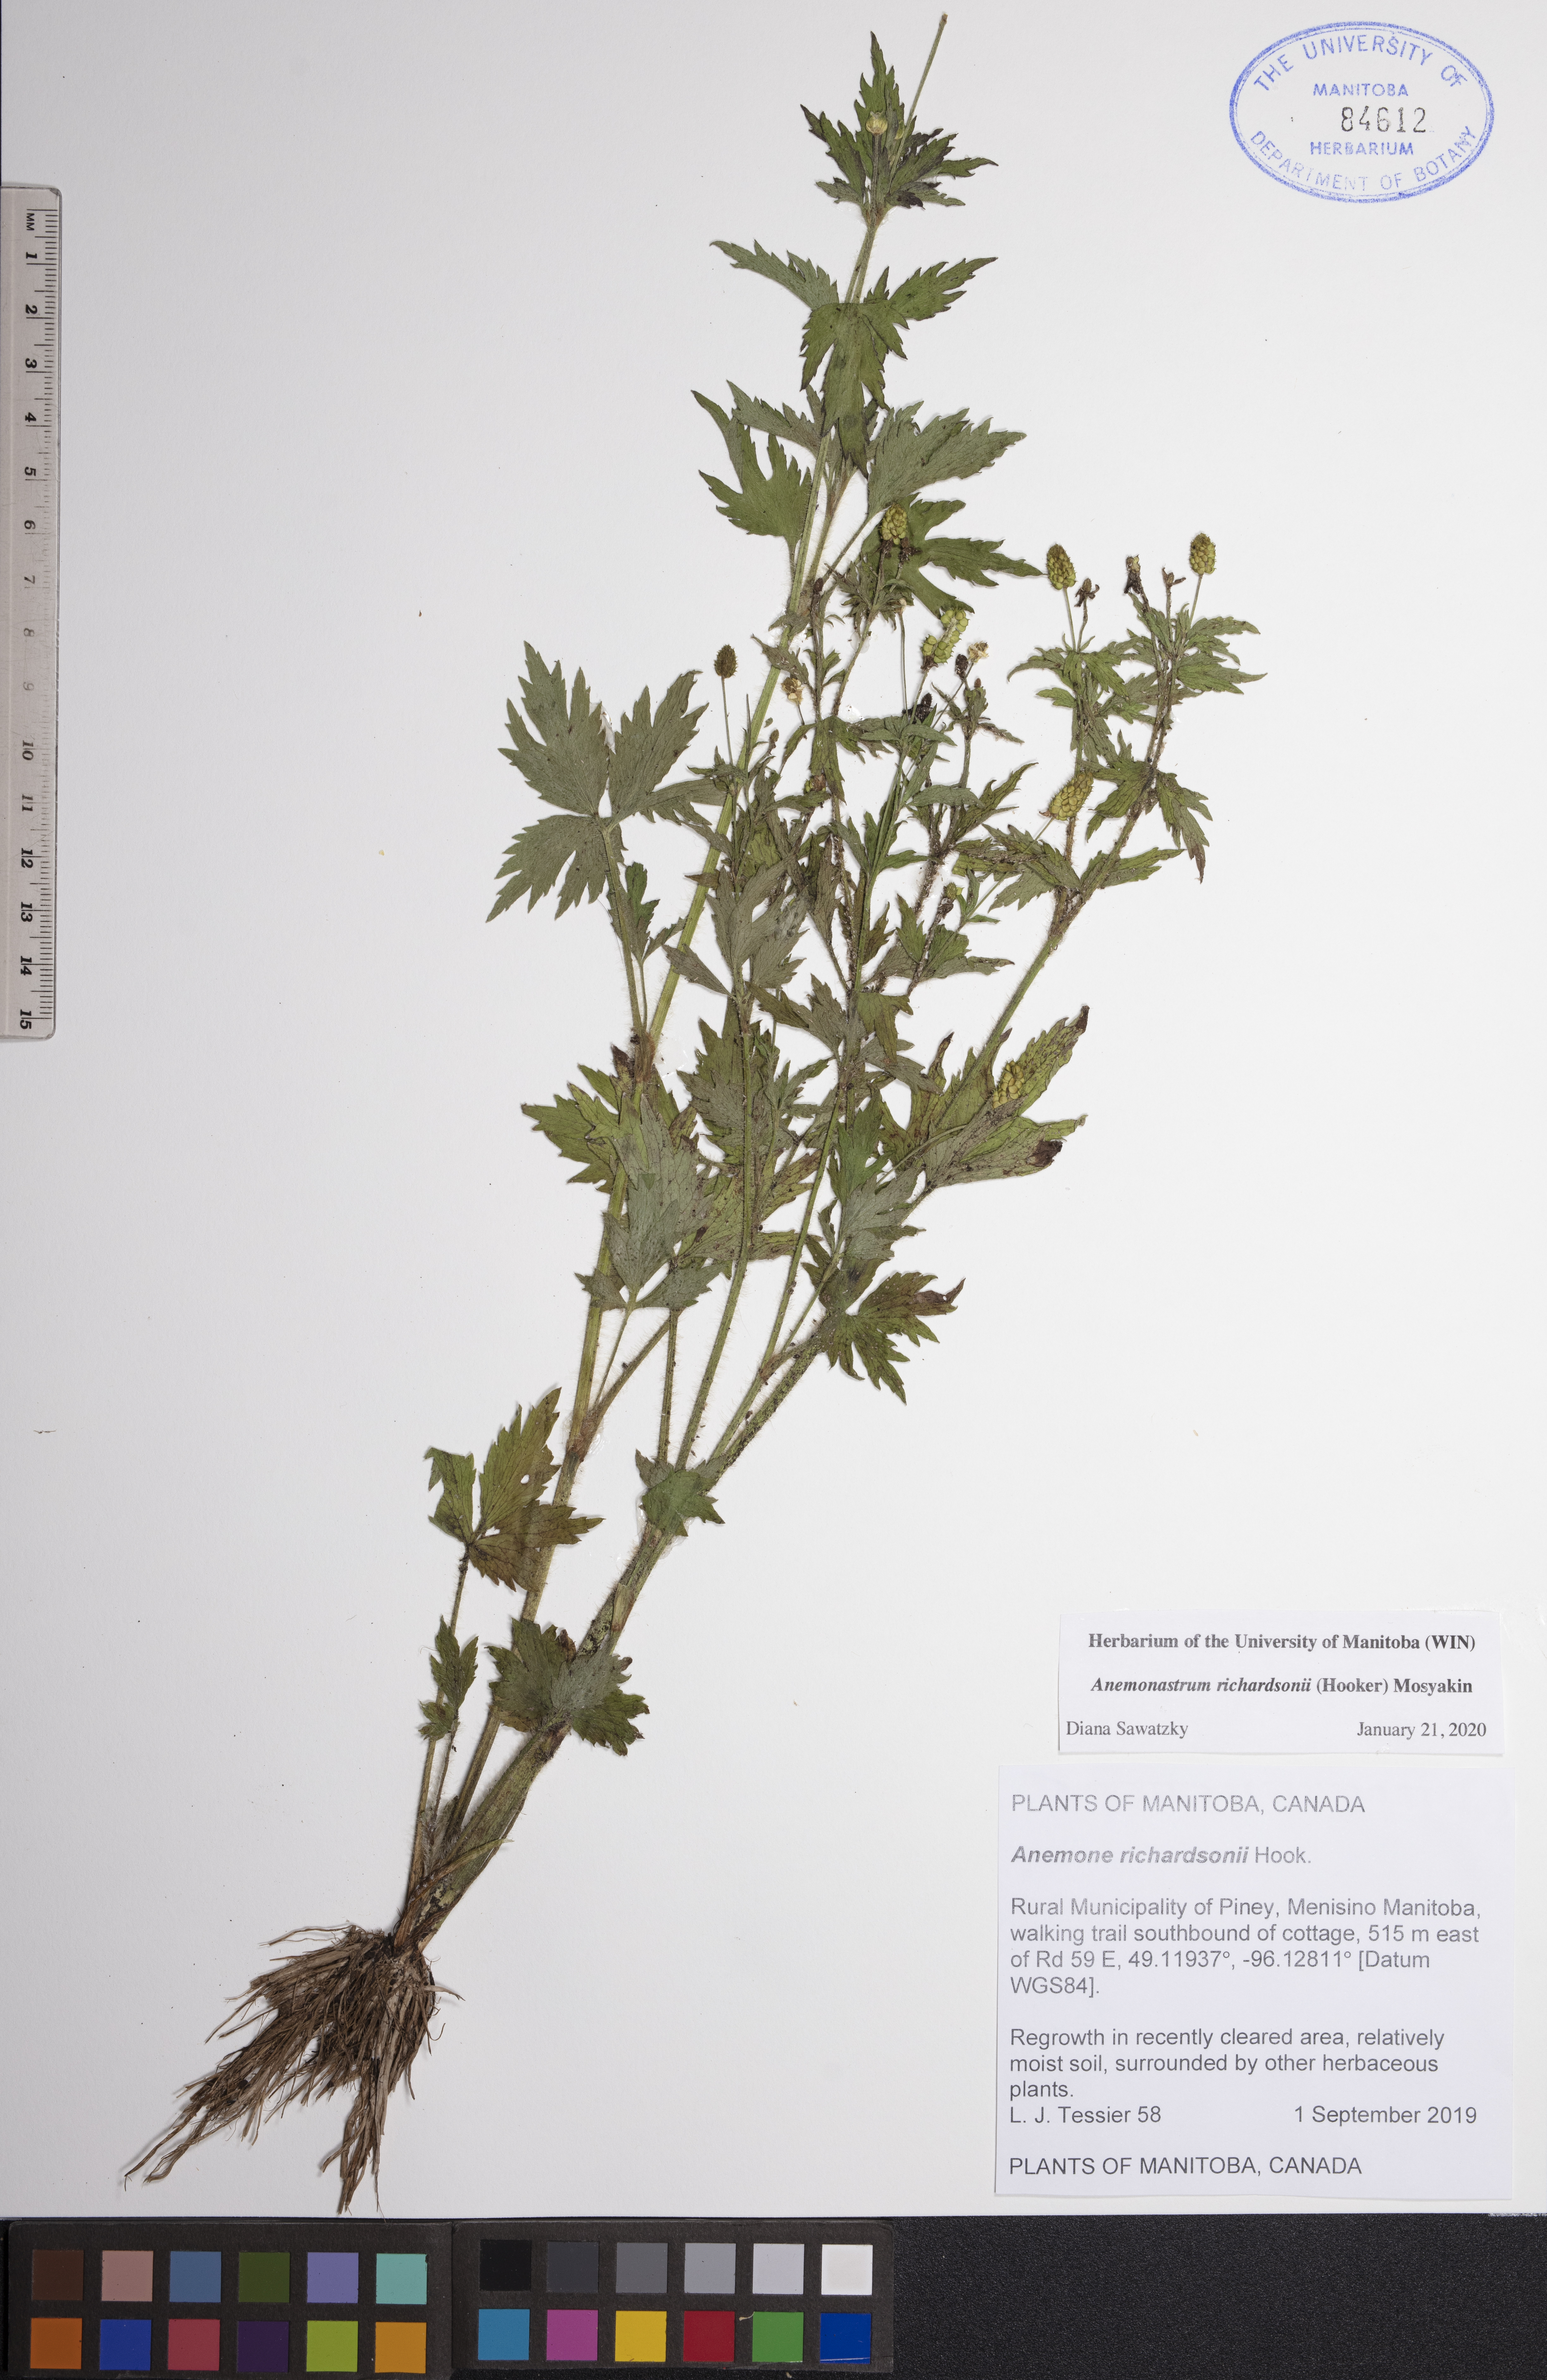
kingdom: Plantae
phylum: Tracheophyta
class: Magnoliopsida
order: Ranunculales
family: Ranunculaceae
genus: Anemonastrum
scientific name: Anemonastrum richardsonii
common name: Richardson's anemone
